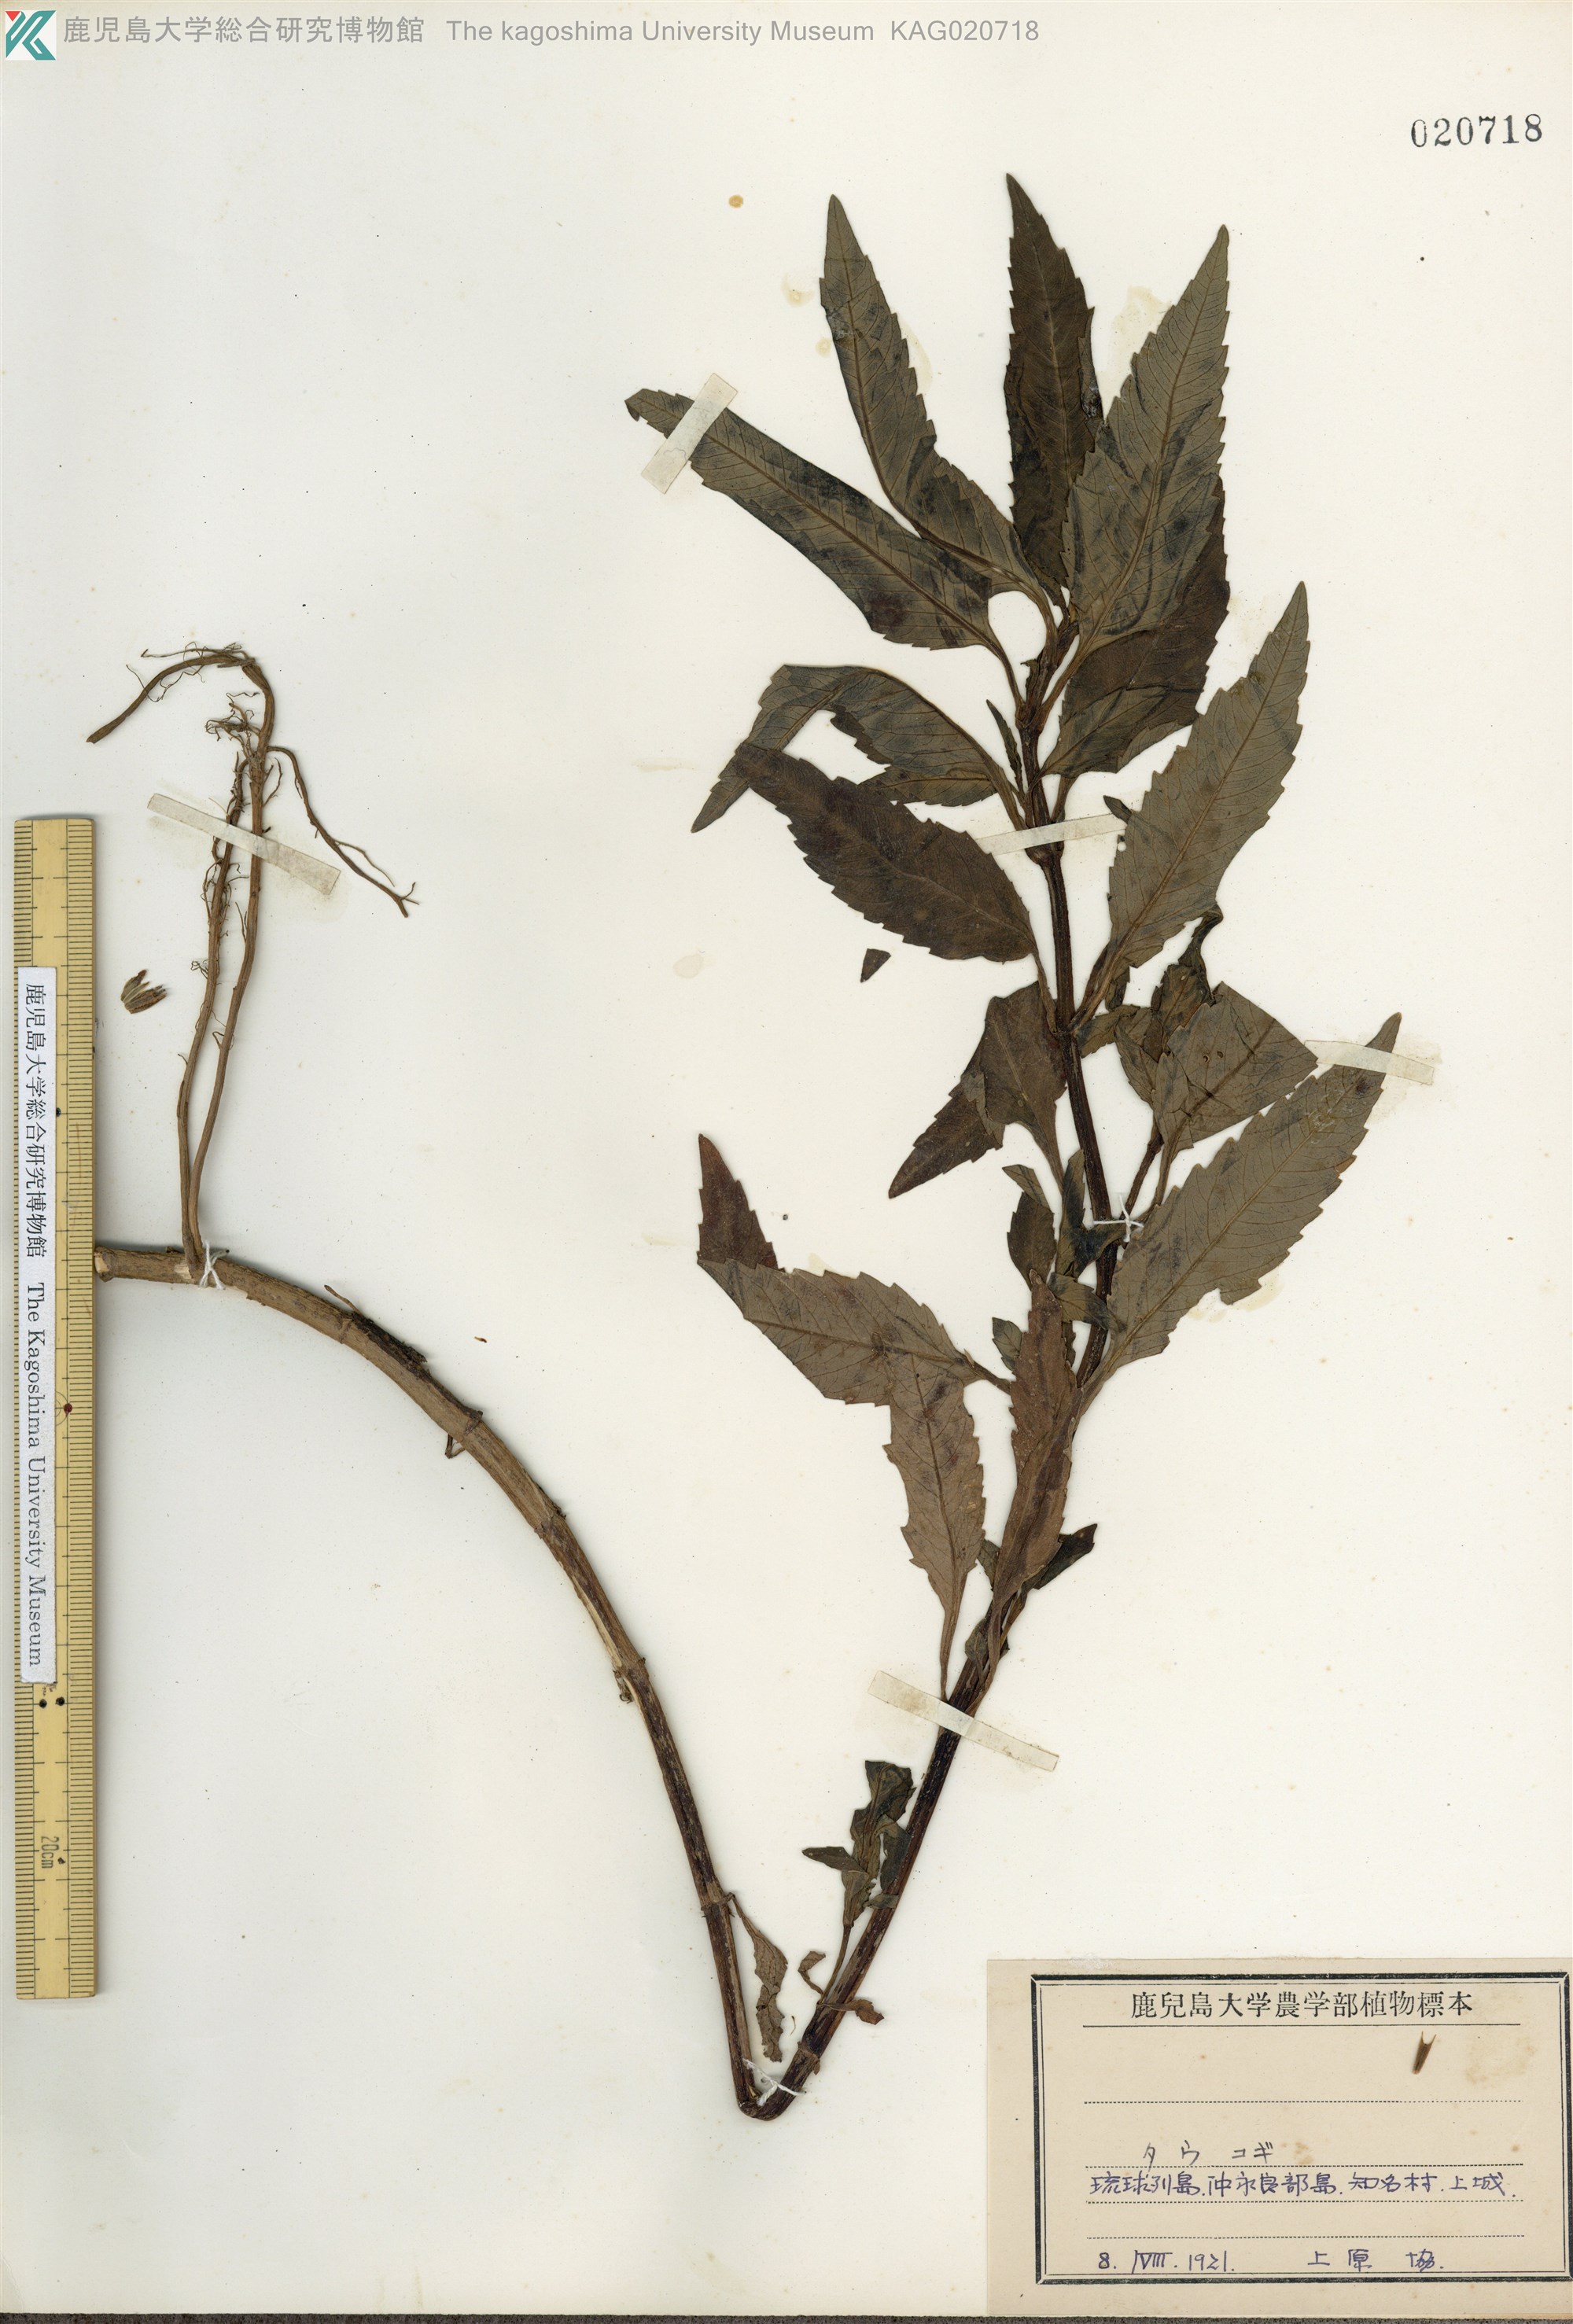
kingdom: Plantae
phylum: Tracheophyta
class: Magnoliopsida
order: Asterales
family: Asteraceae
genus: Bidens
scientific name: Bidens tripartita
